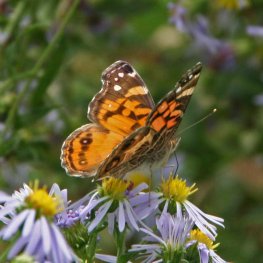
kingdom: Animalia
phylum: Arthropoda
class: Insecta
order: Lepidoptera
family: Nymphalidae
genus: Vanessa
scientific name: Vanessa virginiensis
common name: American Lady
